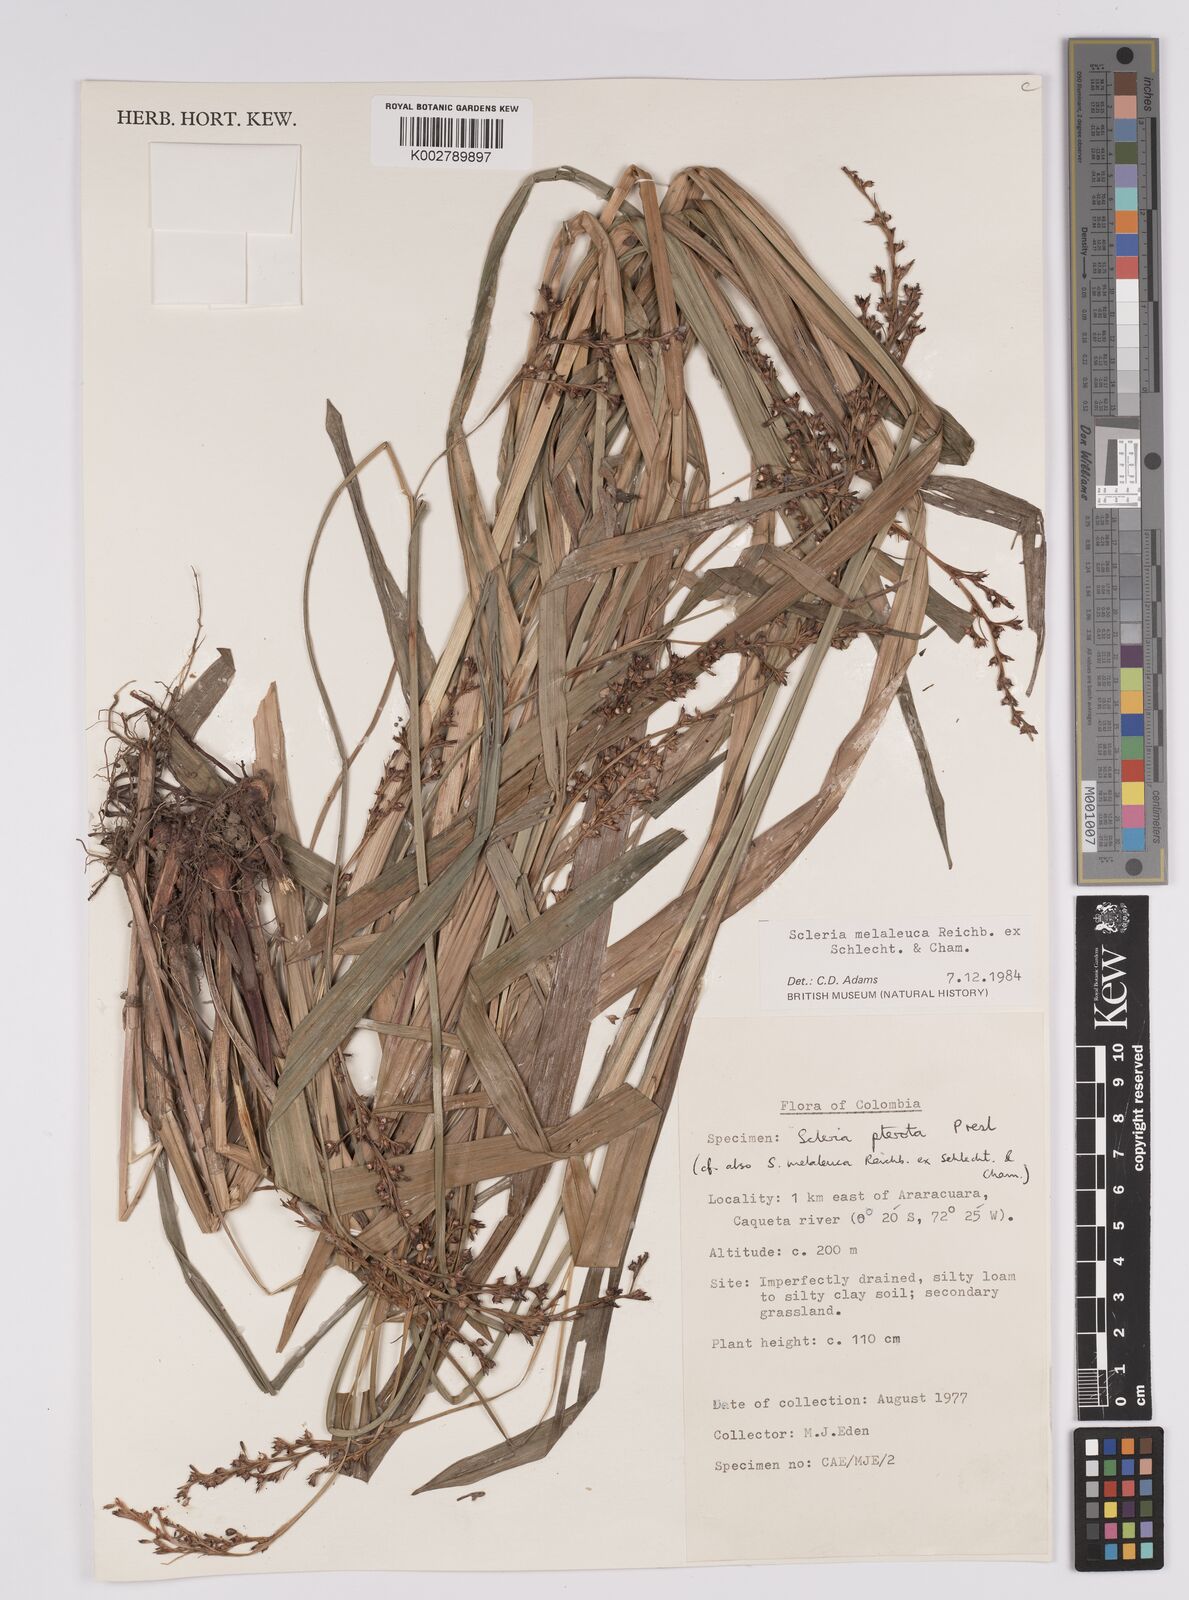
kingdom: Plantae
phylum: Tracheophyta
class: Liliopsida
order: Poales
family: Cyperaceae
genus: Scleria
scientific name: Scleria gaertneri
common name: Cortadera blanca
